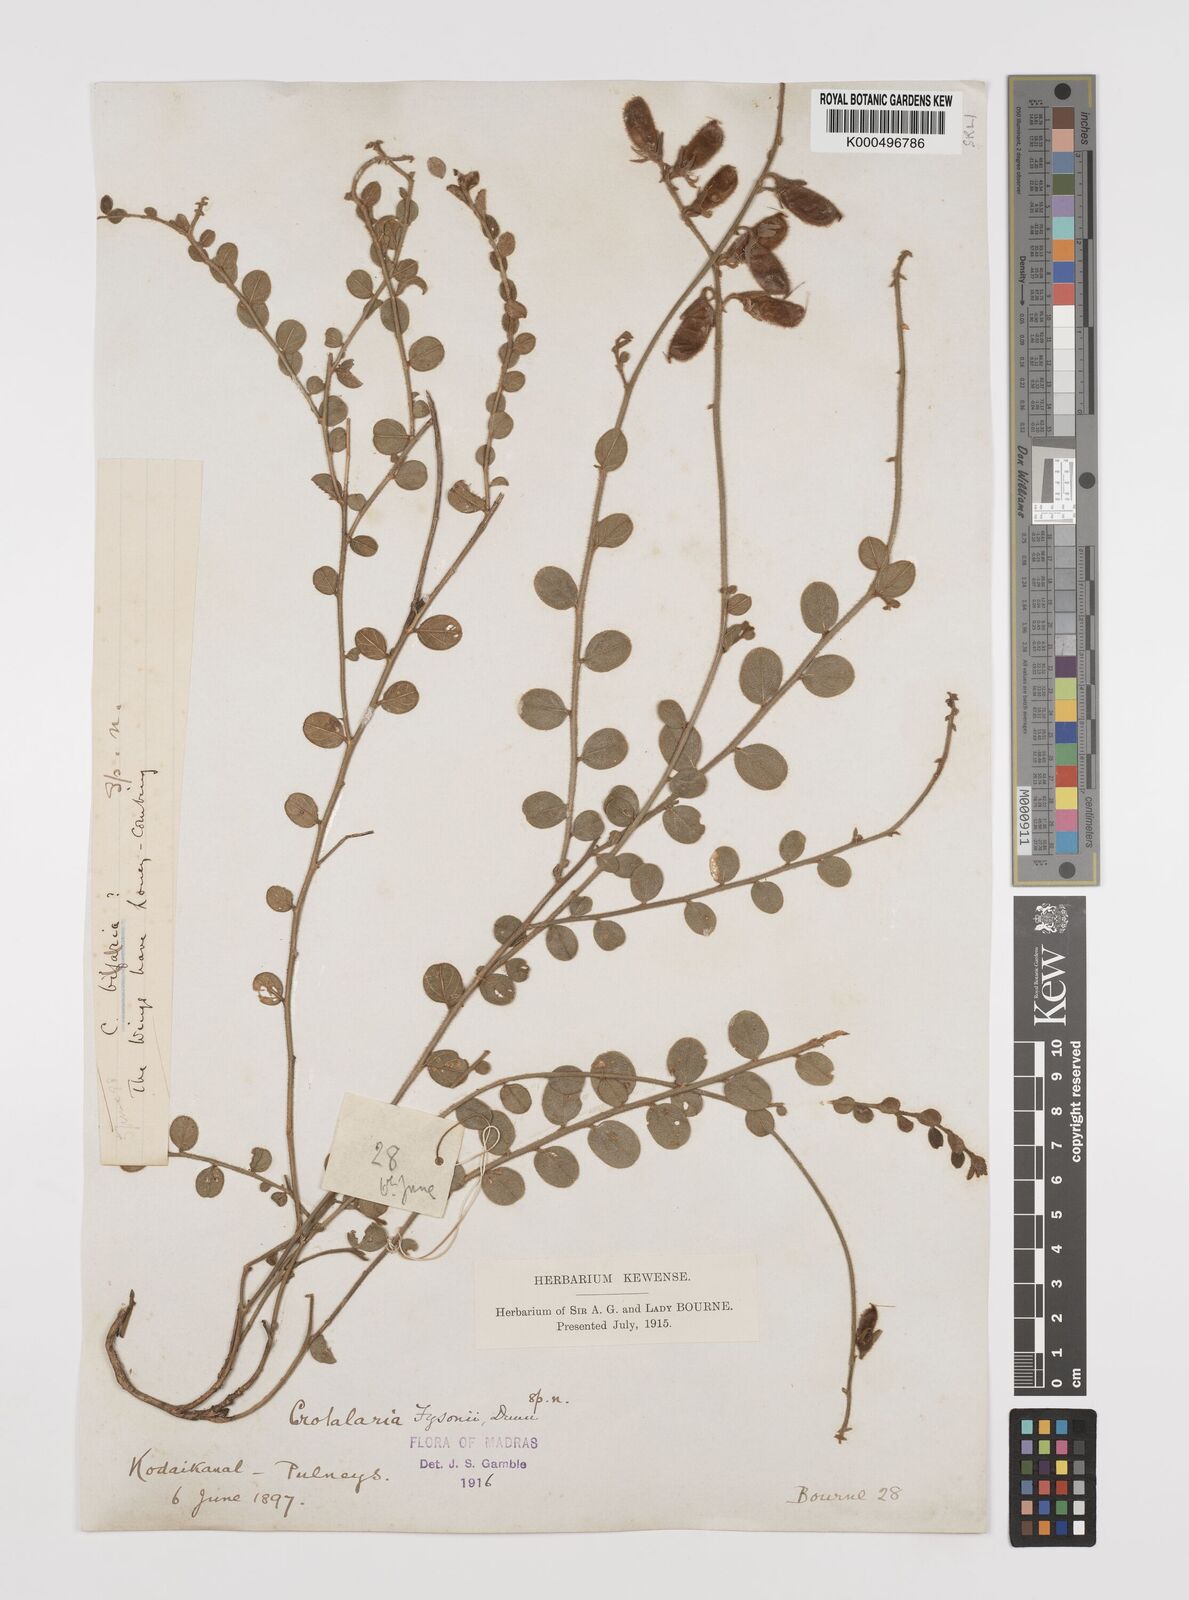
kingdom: Plantae
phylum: Tracheophyta
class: Magnoliopsida
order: Fabales
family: Fabaceae
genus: Crotalaria
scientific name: Crotalaria fysonii
